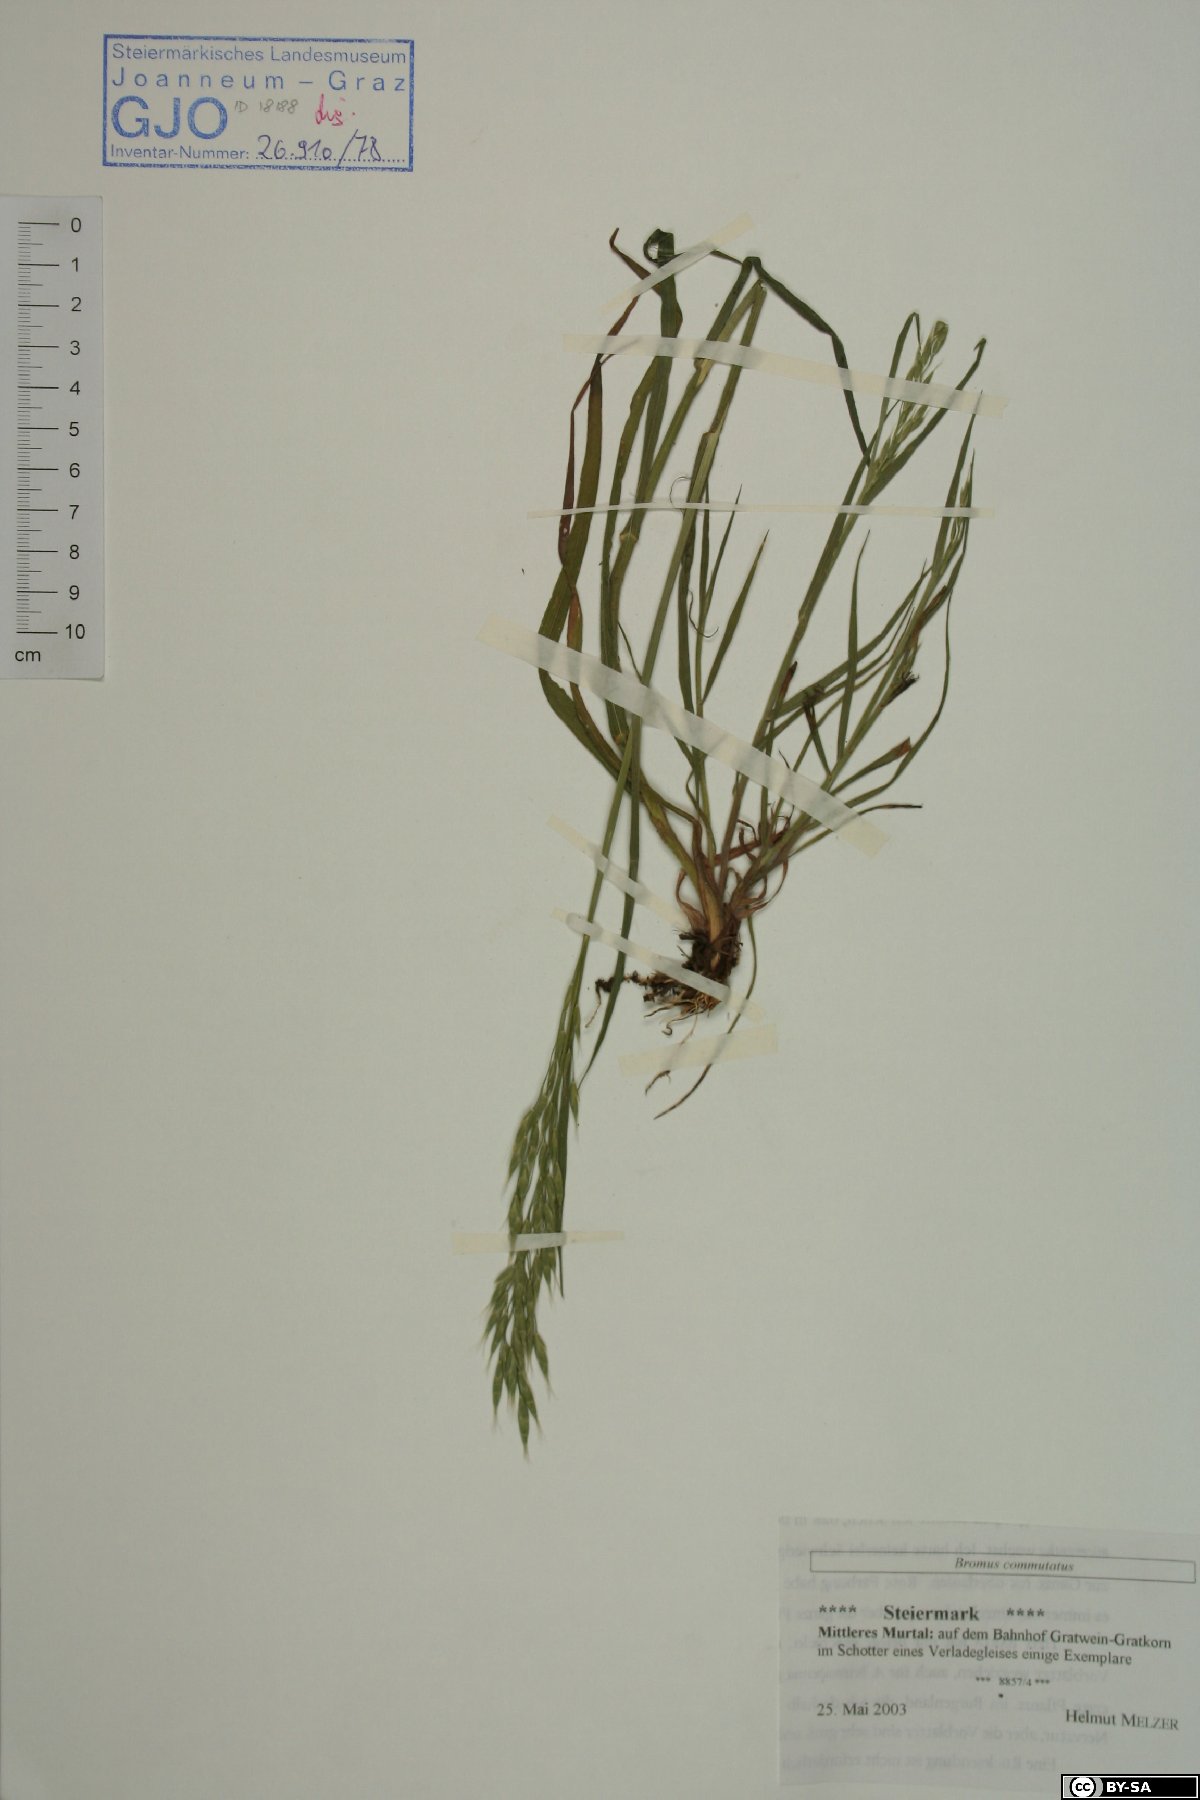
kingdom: Plantae
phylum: Tracheophyta
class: Liliopsida
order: Poales
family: Poaceae
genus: Bromus
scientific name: Bromus commutatus
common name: Meadow brome
